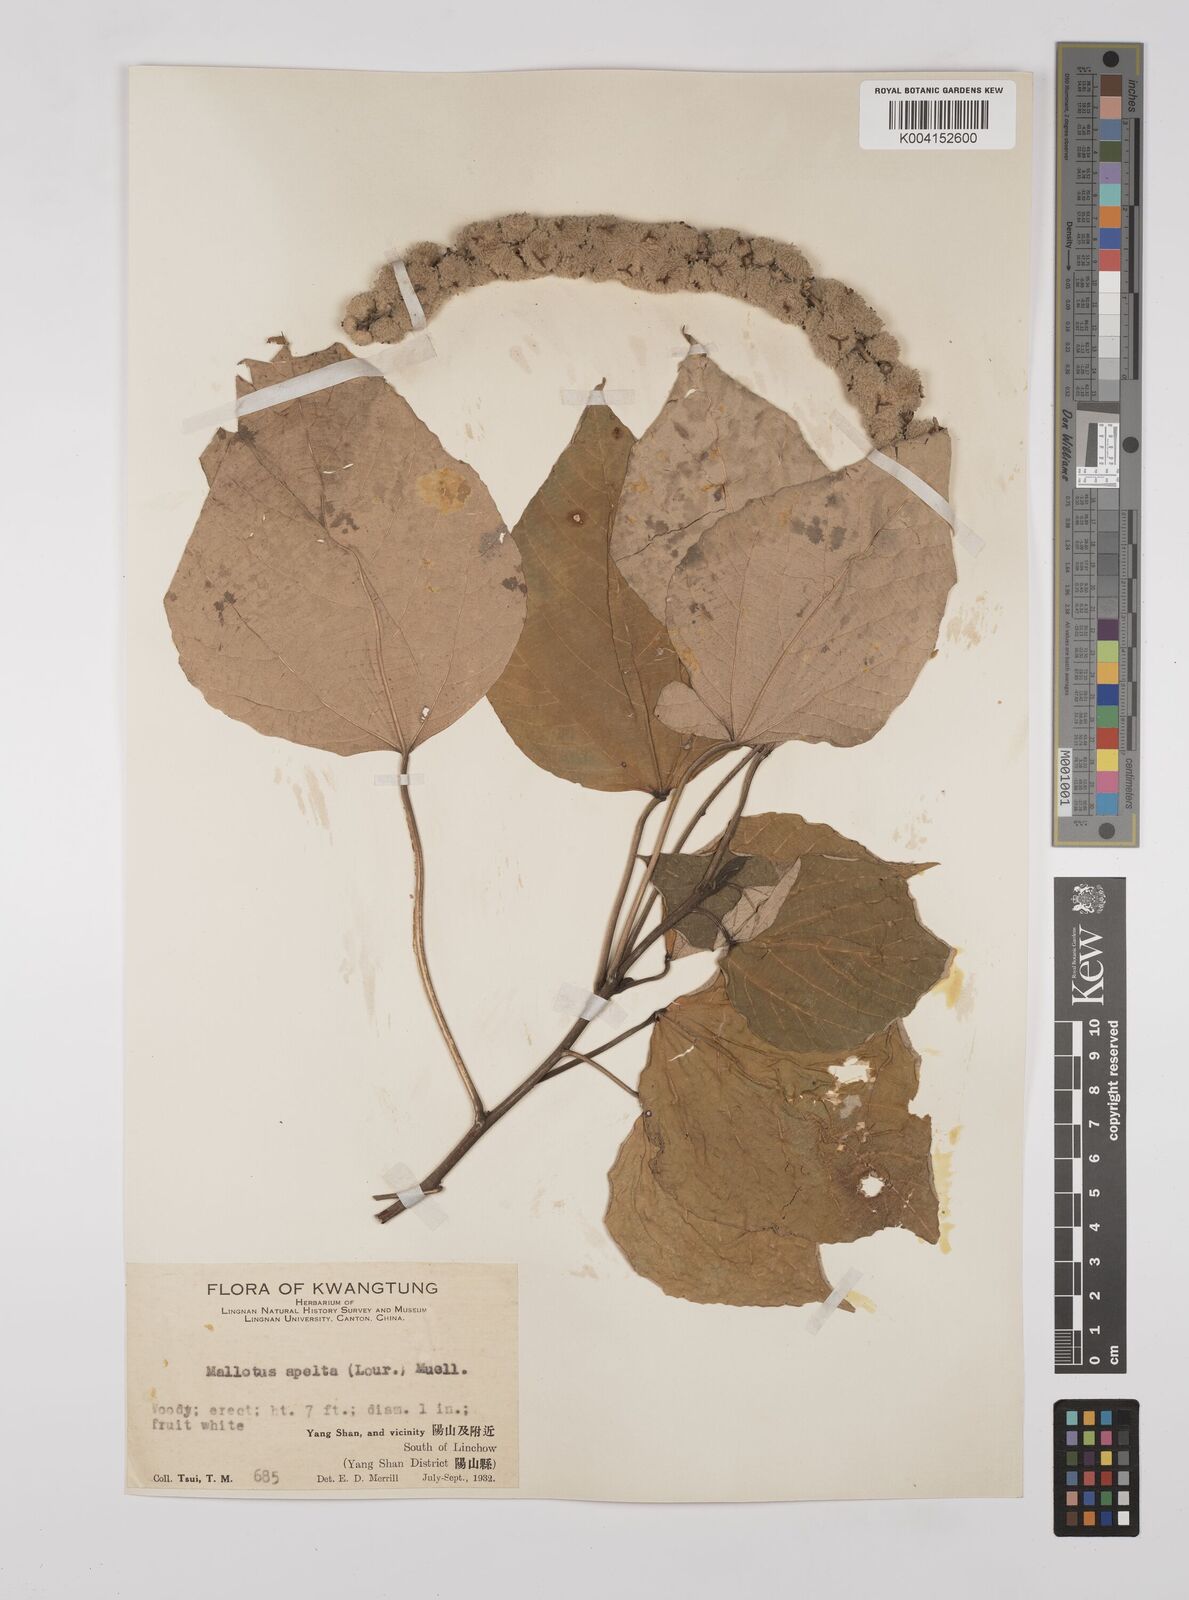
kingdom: Plantae
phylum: Tracheophyta
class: Magnoliopsida
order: Malpighiales
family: Euphorbiaceae
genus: Mallotus
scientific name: Mallotus apelta
